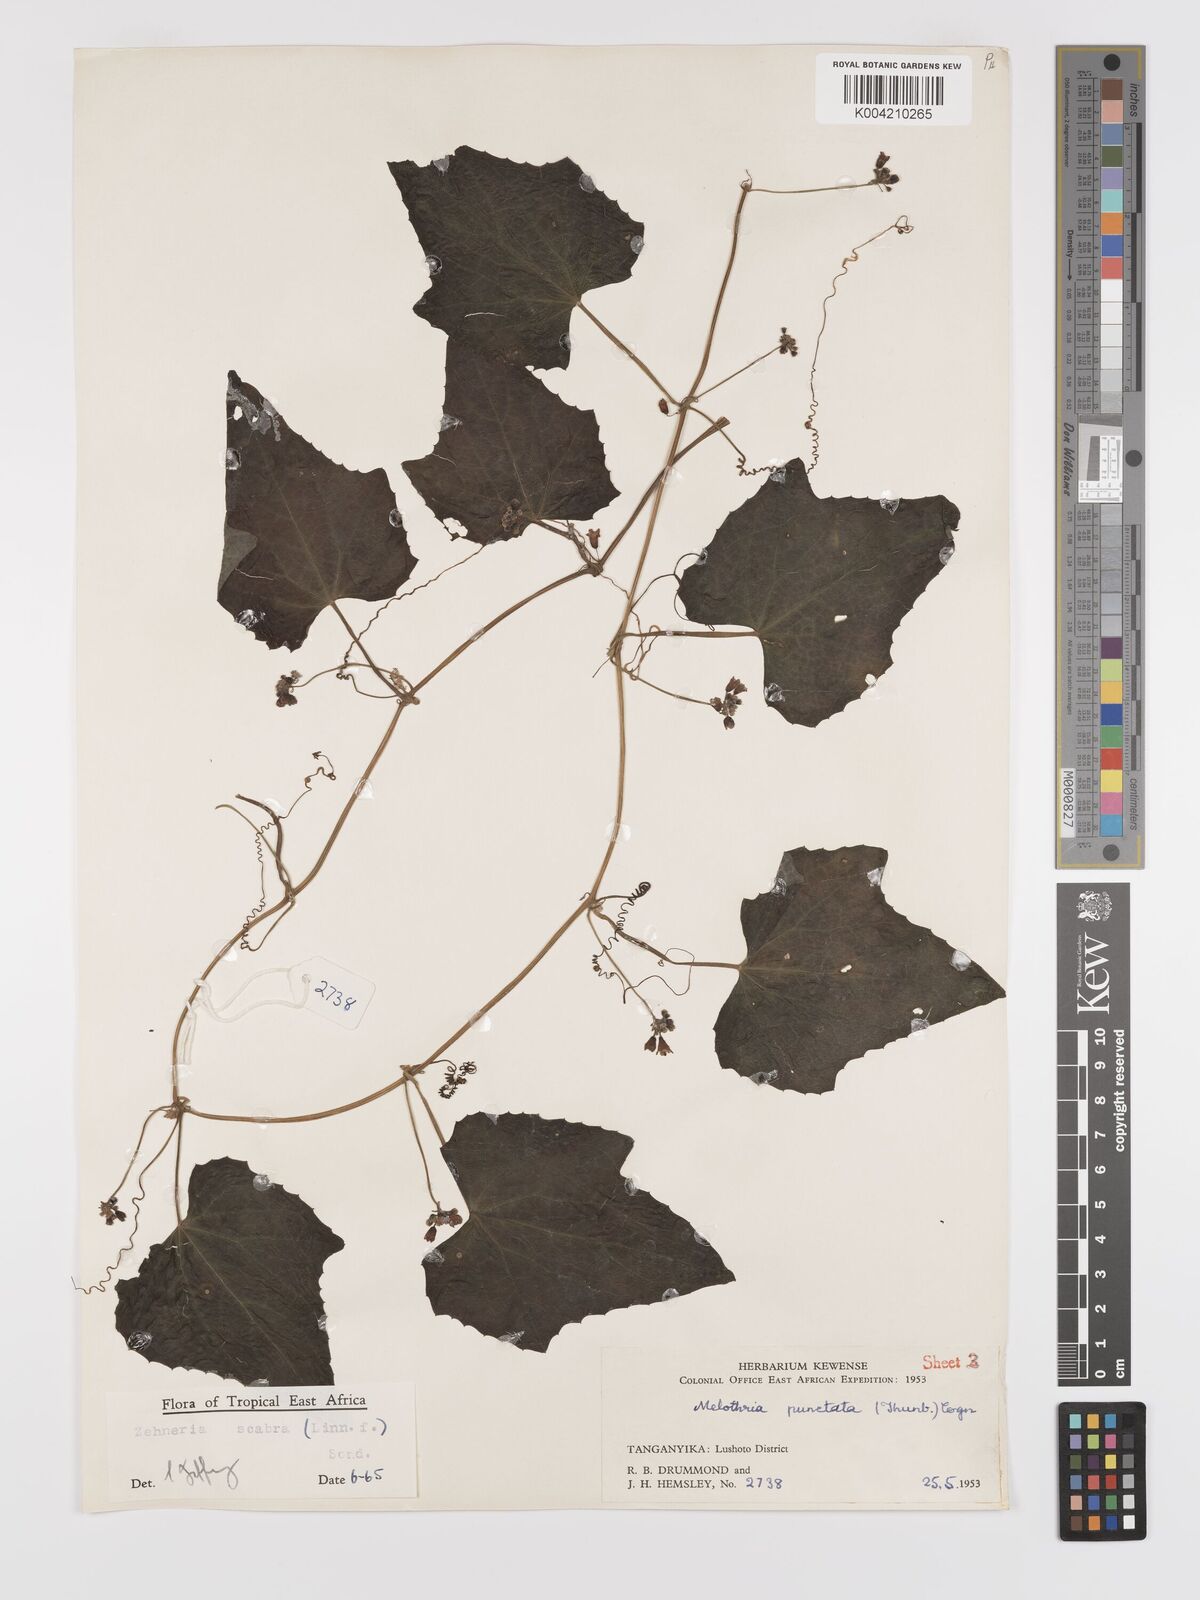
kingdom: Plantae
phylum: Tracheophyta
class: Magnoliopsida
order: Cucurbitales
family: Cucurbitaceae
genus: Zehneria
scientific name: Zehneria scabra
